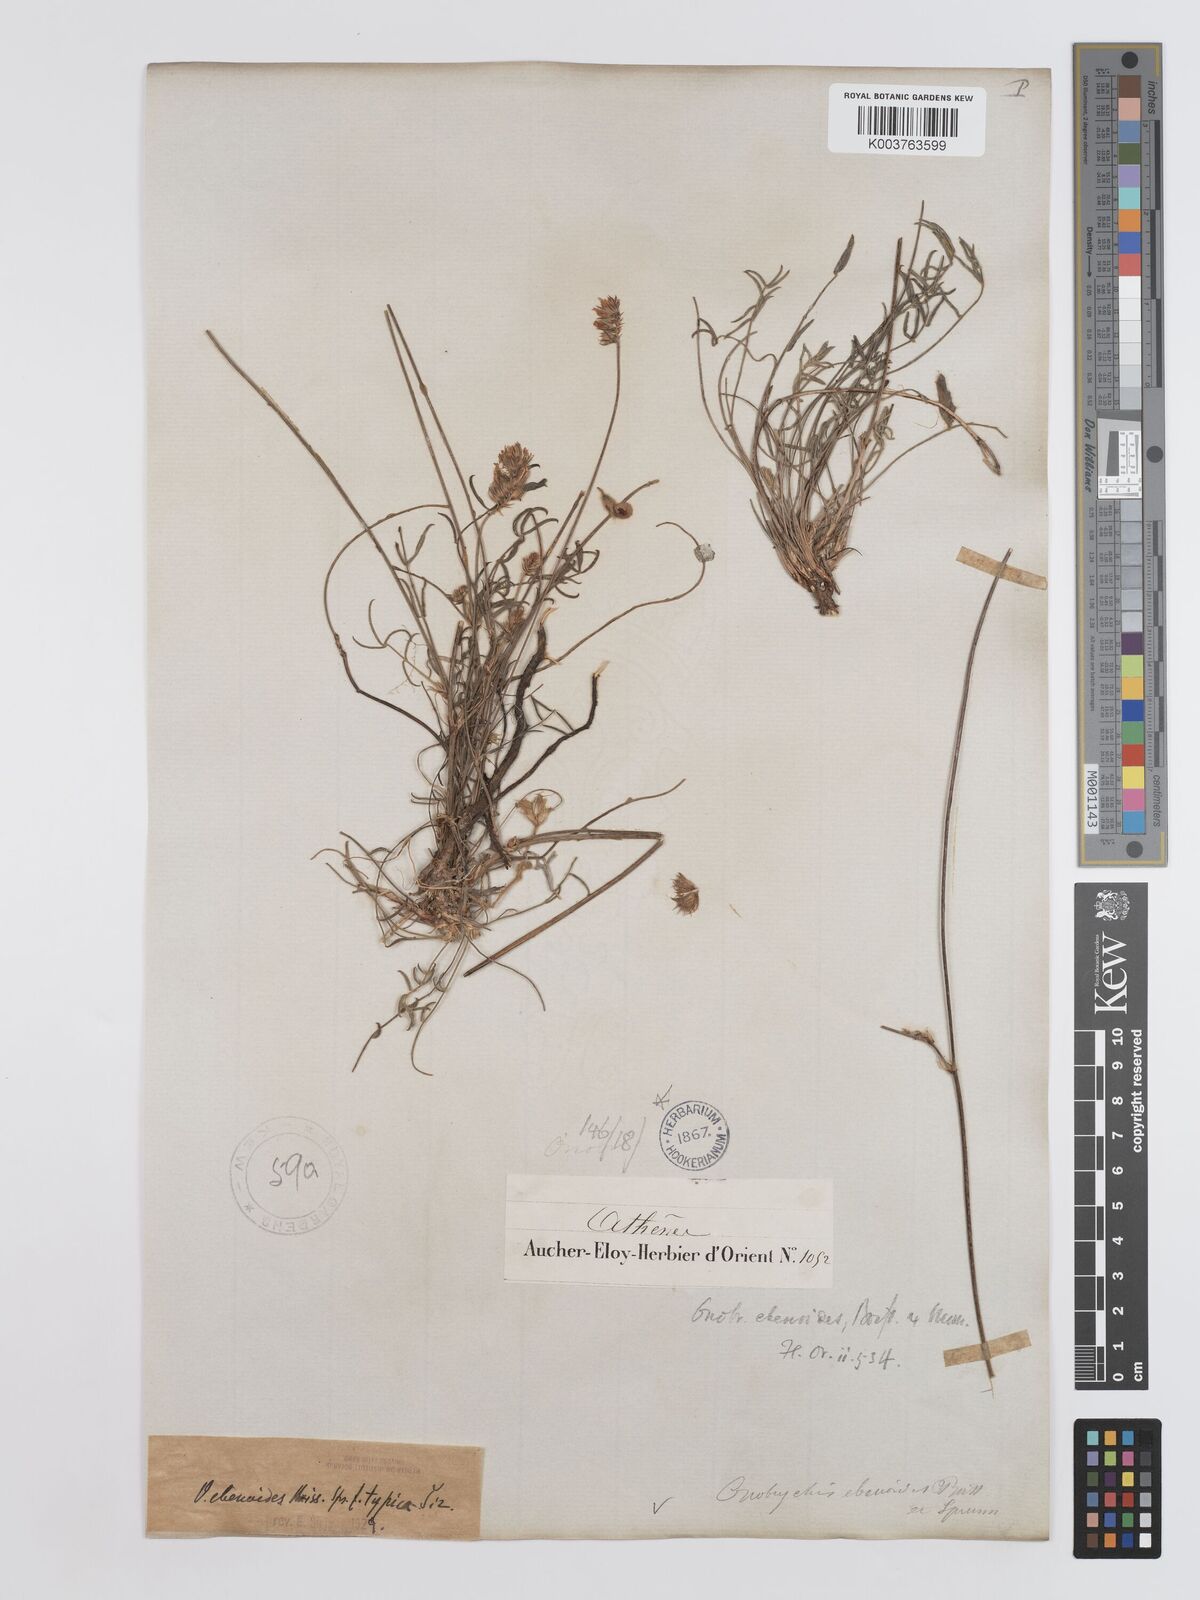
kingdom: Plantae
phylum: Tracheophyta
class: Magnoliopsida
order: Fabales
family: Fabaceae
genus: Onobrychis
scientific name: Onobrychis ebenoides
